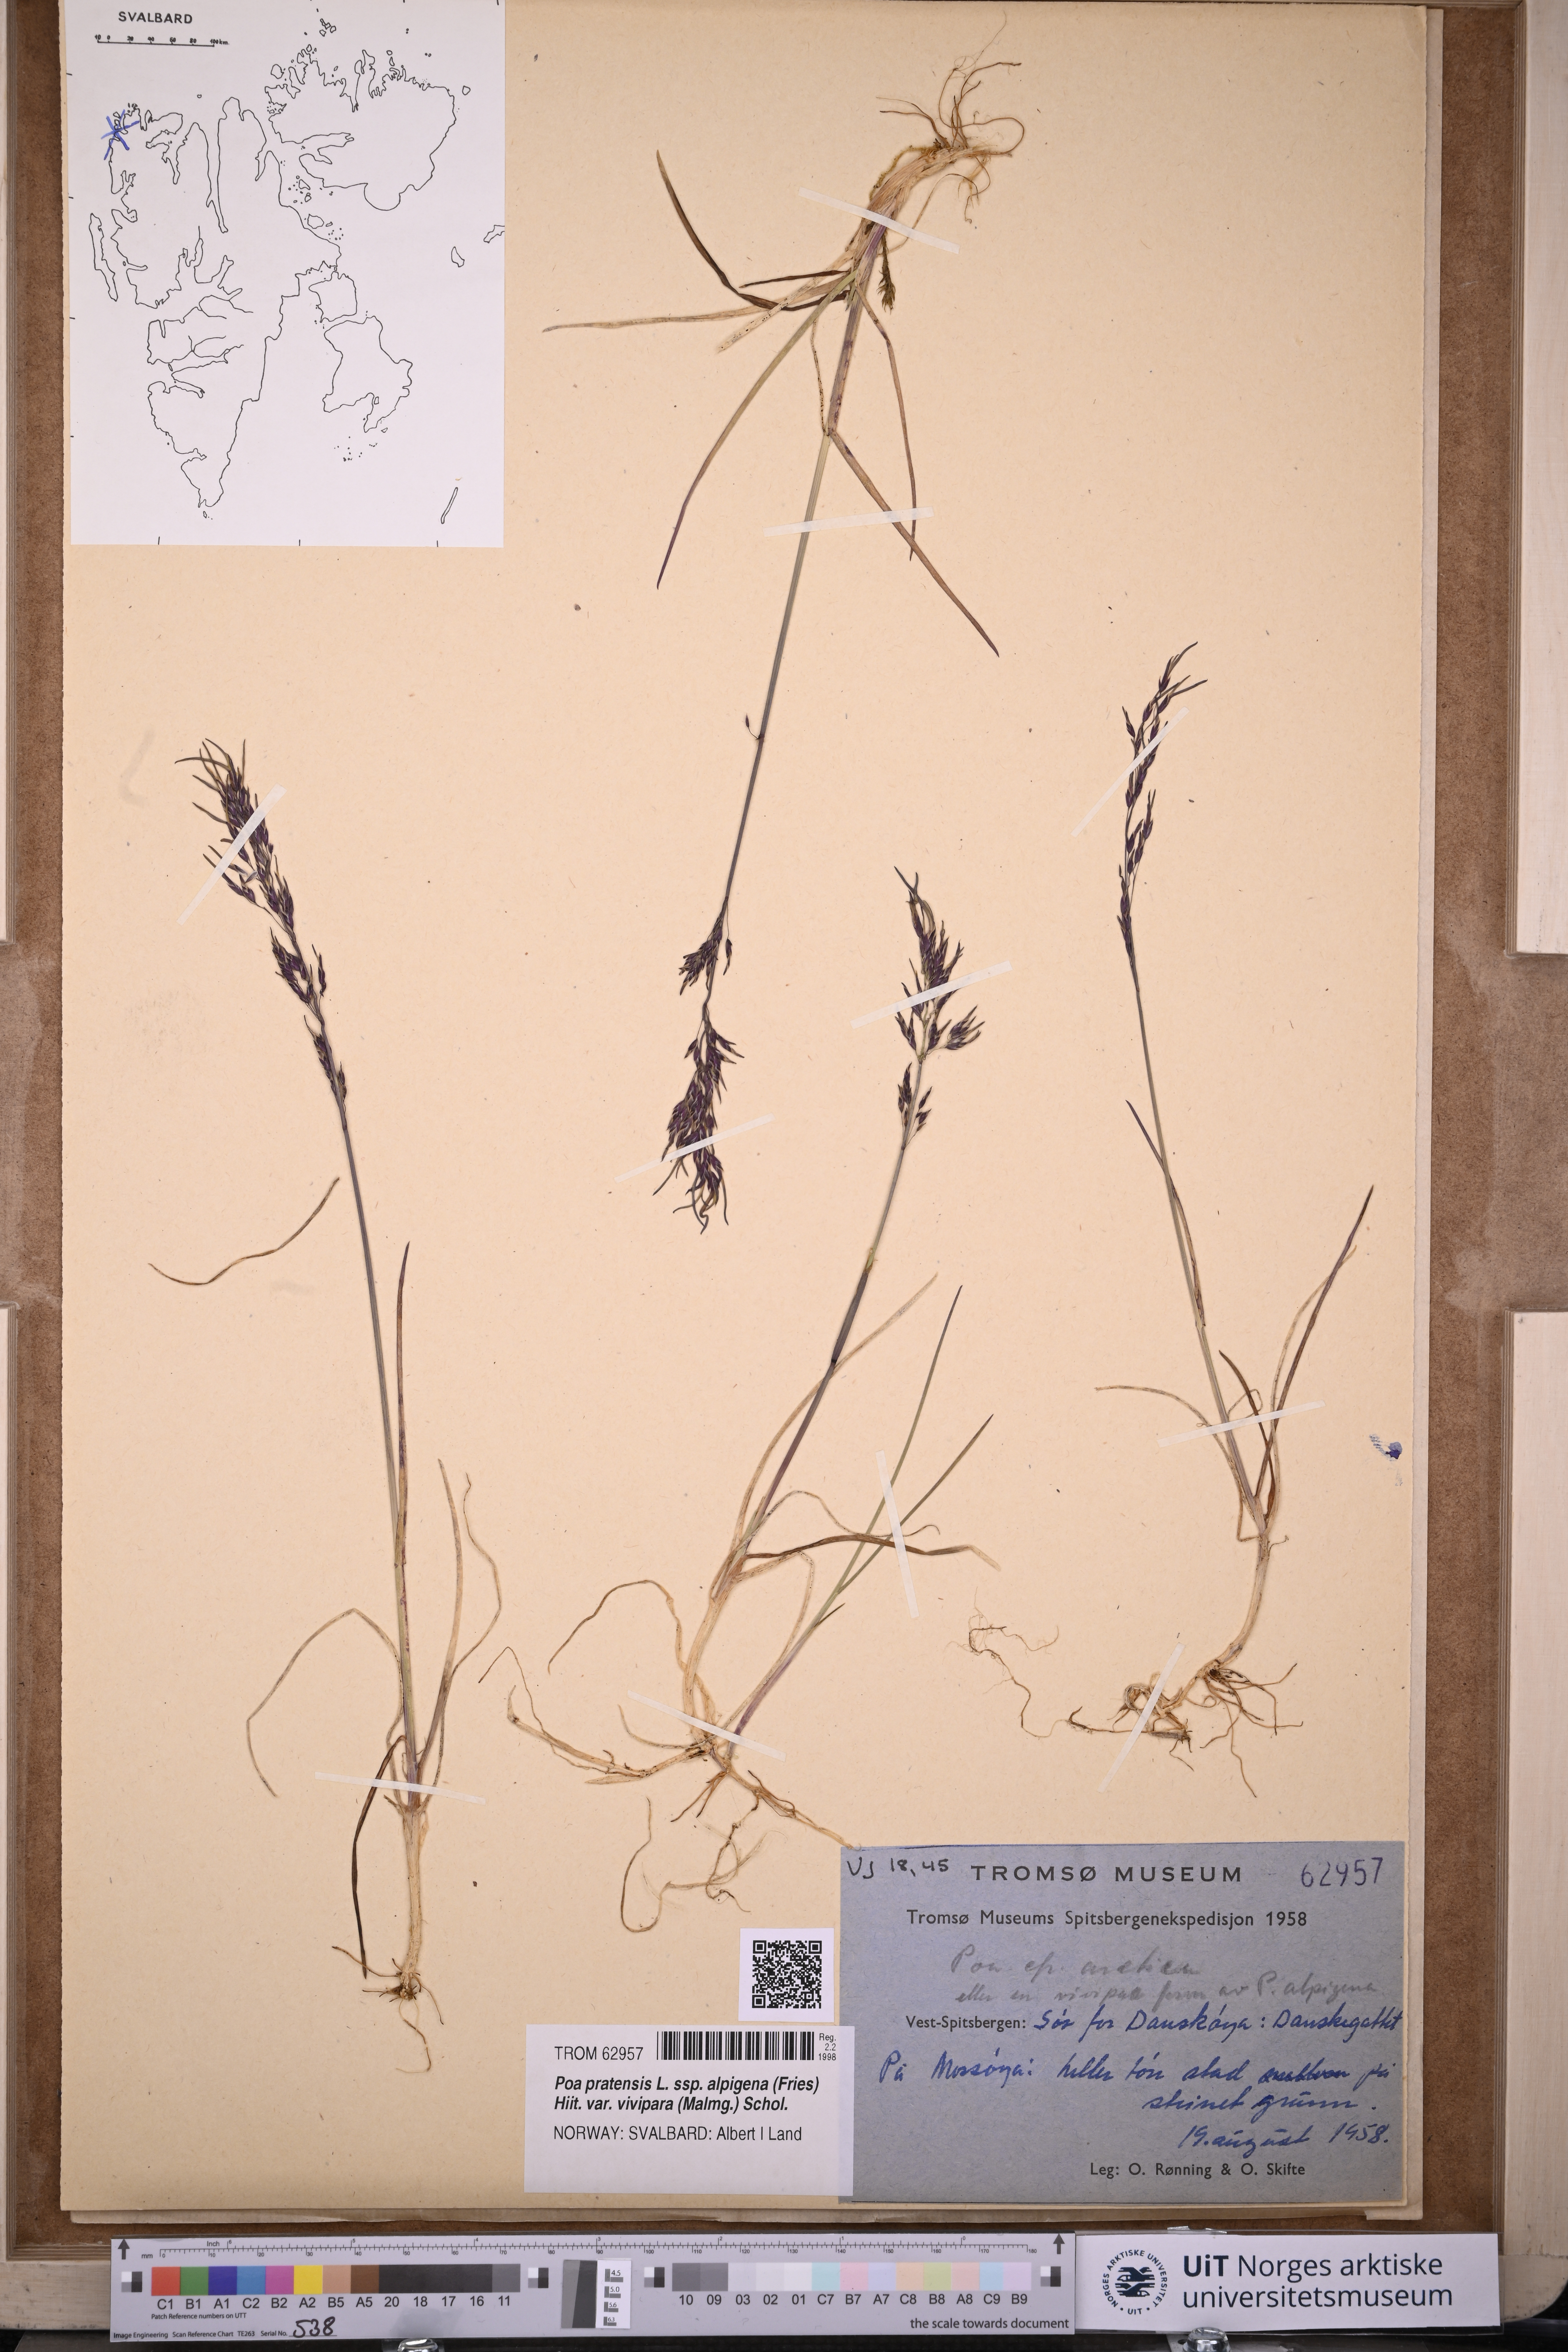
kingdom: Plantae
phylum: Tracheophyta
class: Liliopsida
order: Poales
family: Poaceae
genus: Poa
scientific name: Poa arctica
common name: Arctic bluegrass
